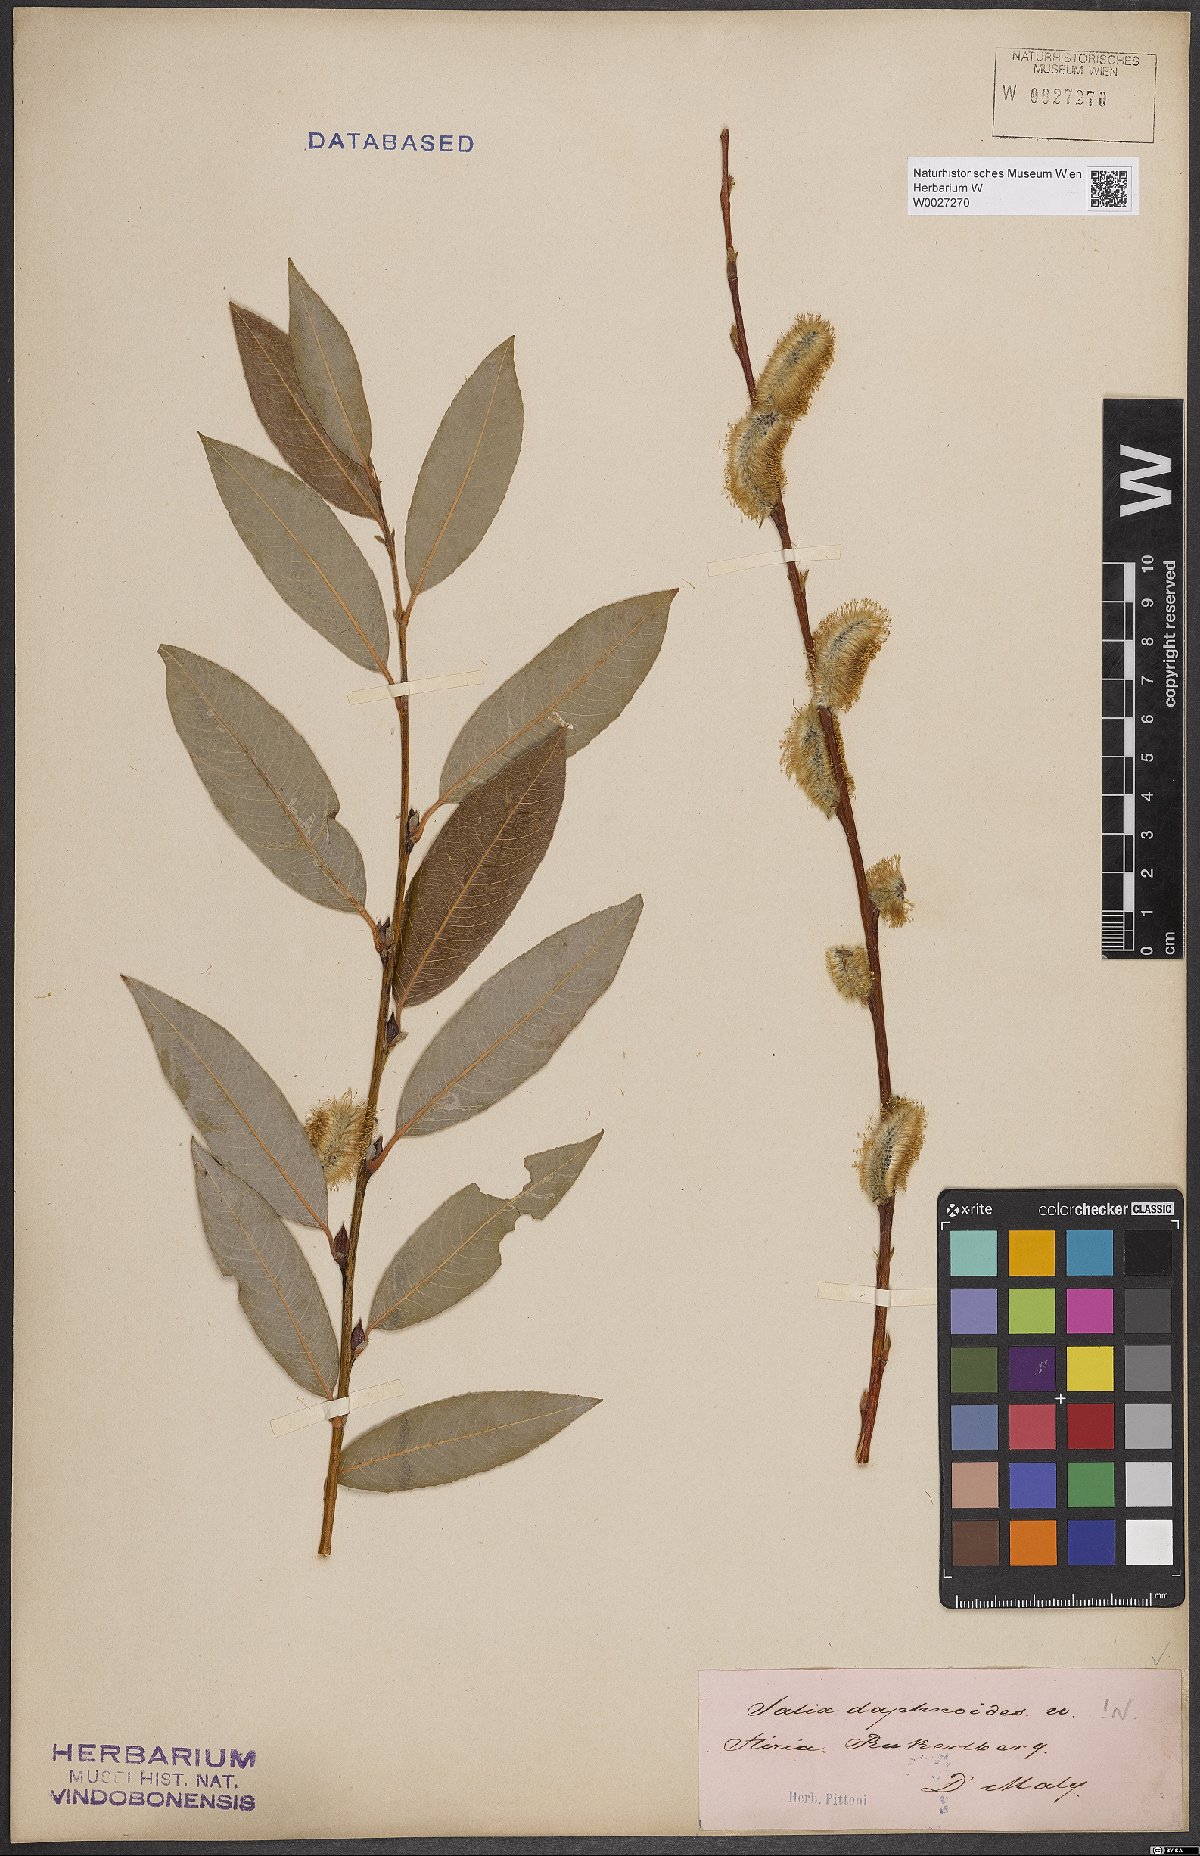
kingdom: Plantae
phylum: Tracheophyta
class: Magnoliopsida
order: Malpighiales
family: Salicaceae
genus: Salix
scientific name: Salix daphnoides
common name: European violet-willow
